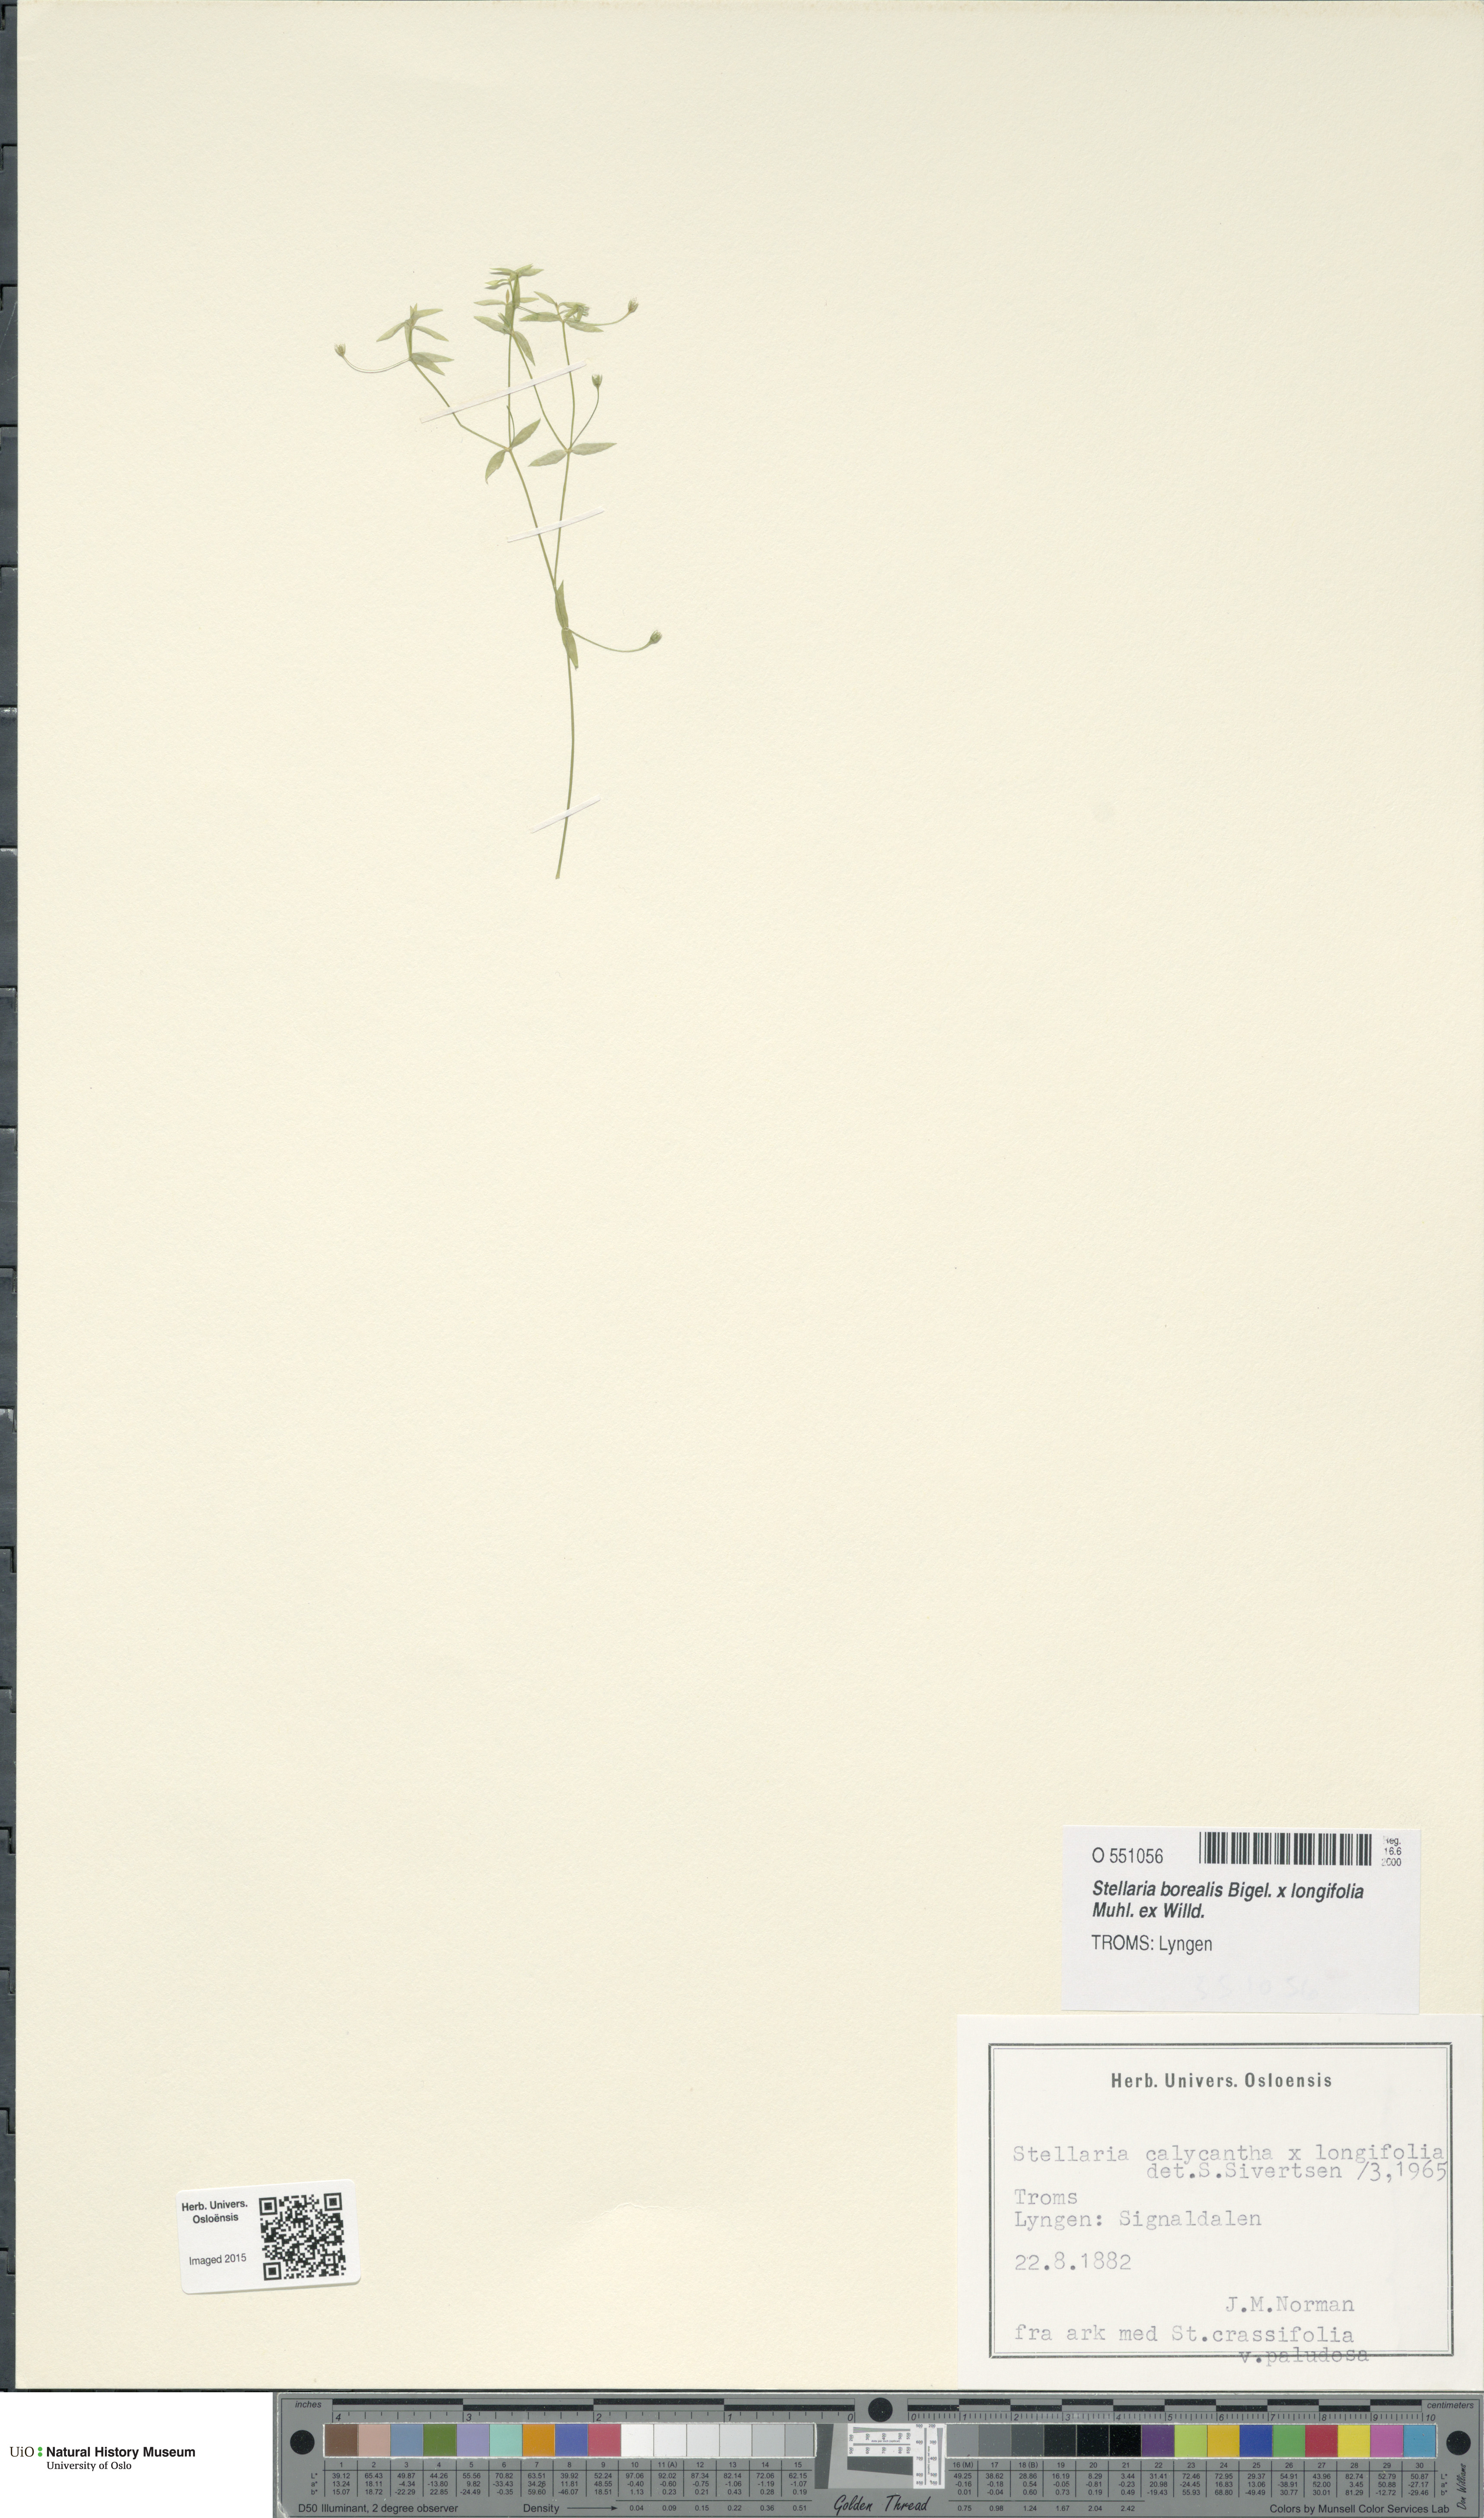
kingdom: Plantae
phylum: Tracheophyta
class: Magnoliopsida
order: Caryophyllales
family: Caryophyllaceae
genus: Stellaria
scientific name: Stellaria
